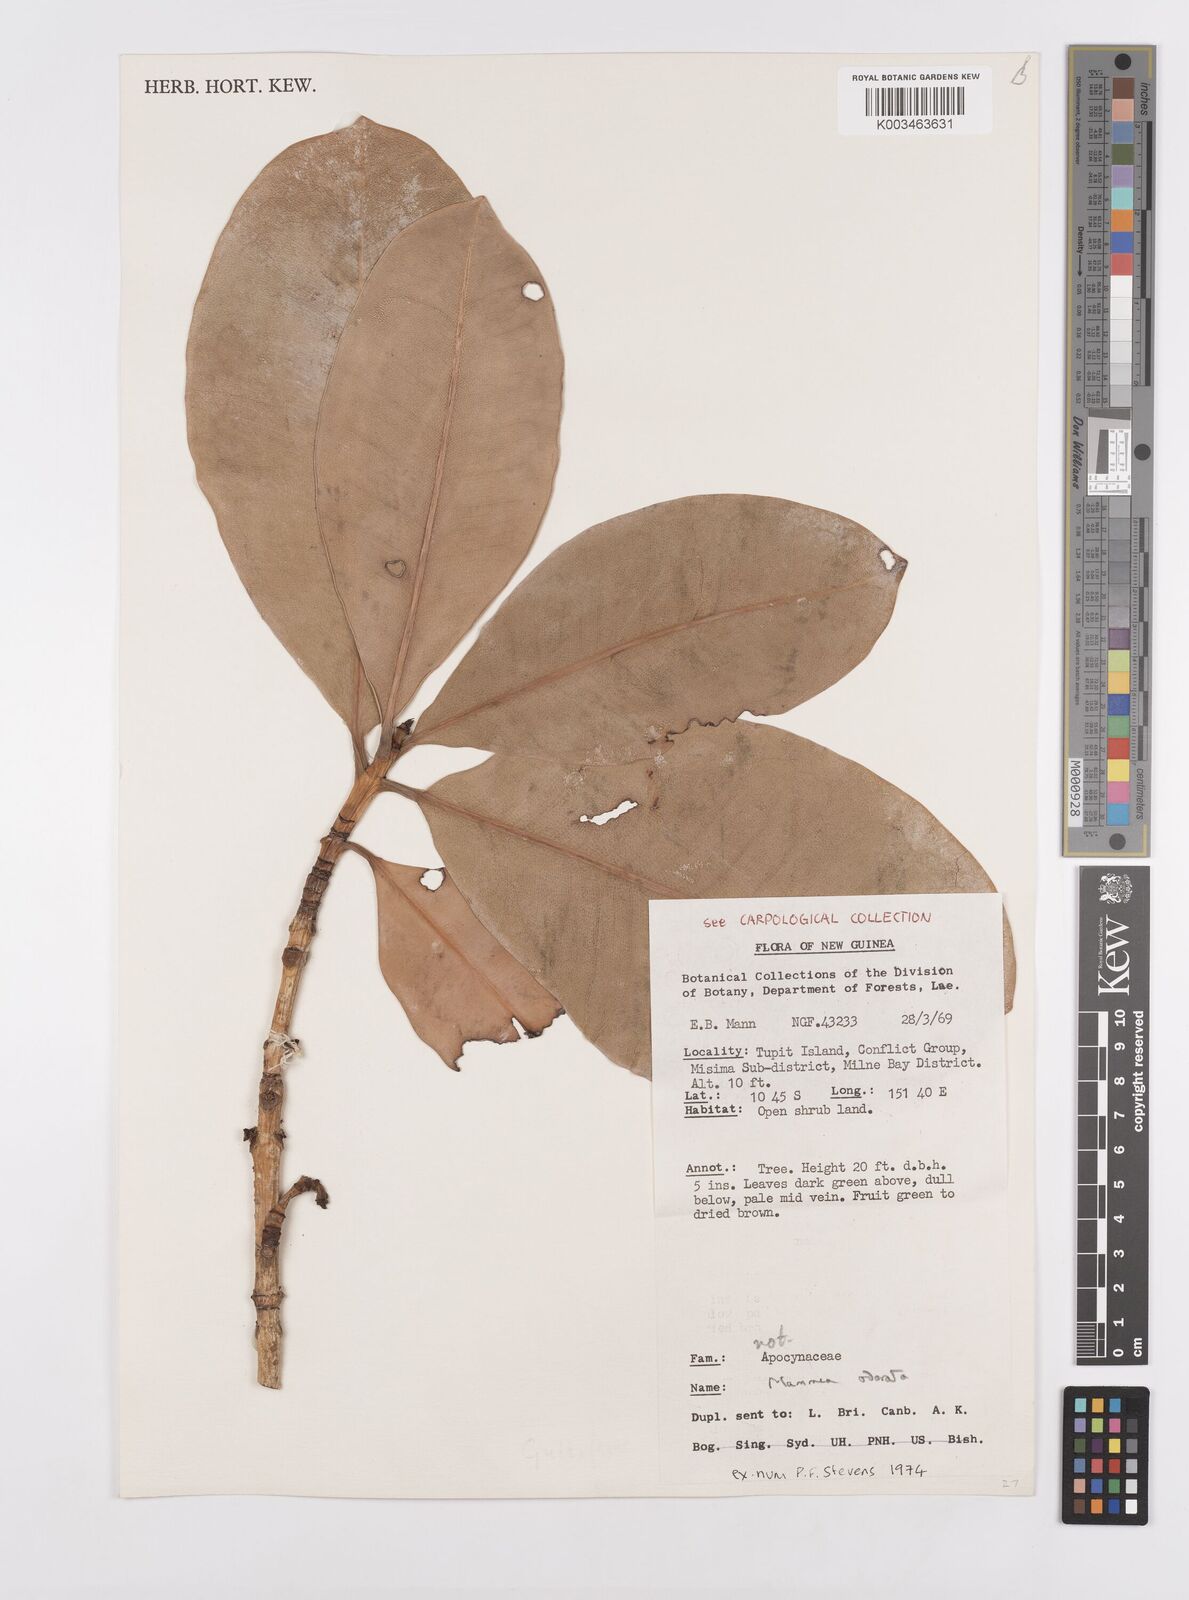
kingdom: Plantae
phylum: Tracheophyta
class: Magnoliopsida
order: Malpighiales
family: Calophyllaceae
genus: Mammea
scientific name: Mammea odorata
